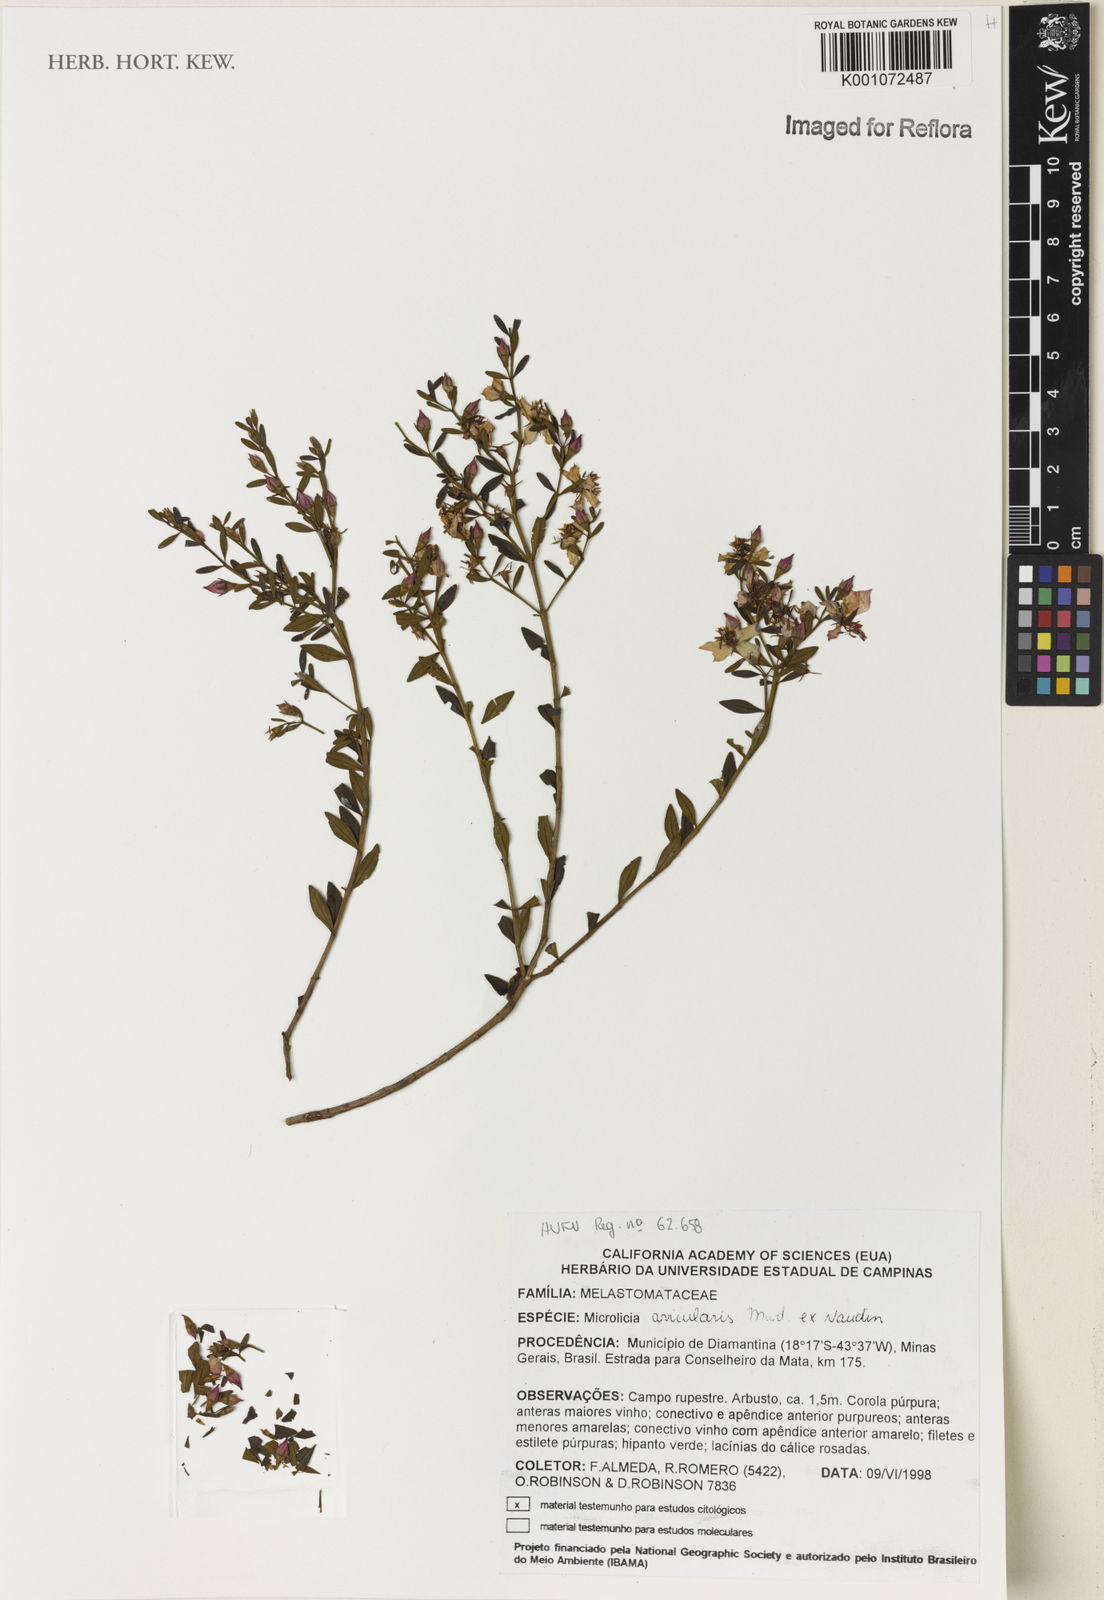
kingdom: Plantae
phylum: Tracheophyta
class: Magnoliopsida
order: Myrtales
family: Melastomataceae
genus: Microlicia
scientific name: Microlicia avicularis
